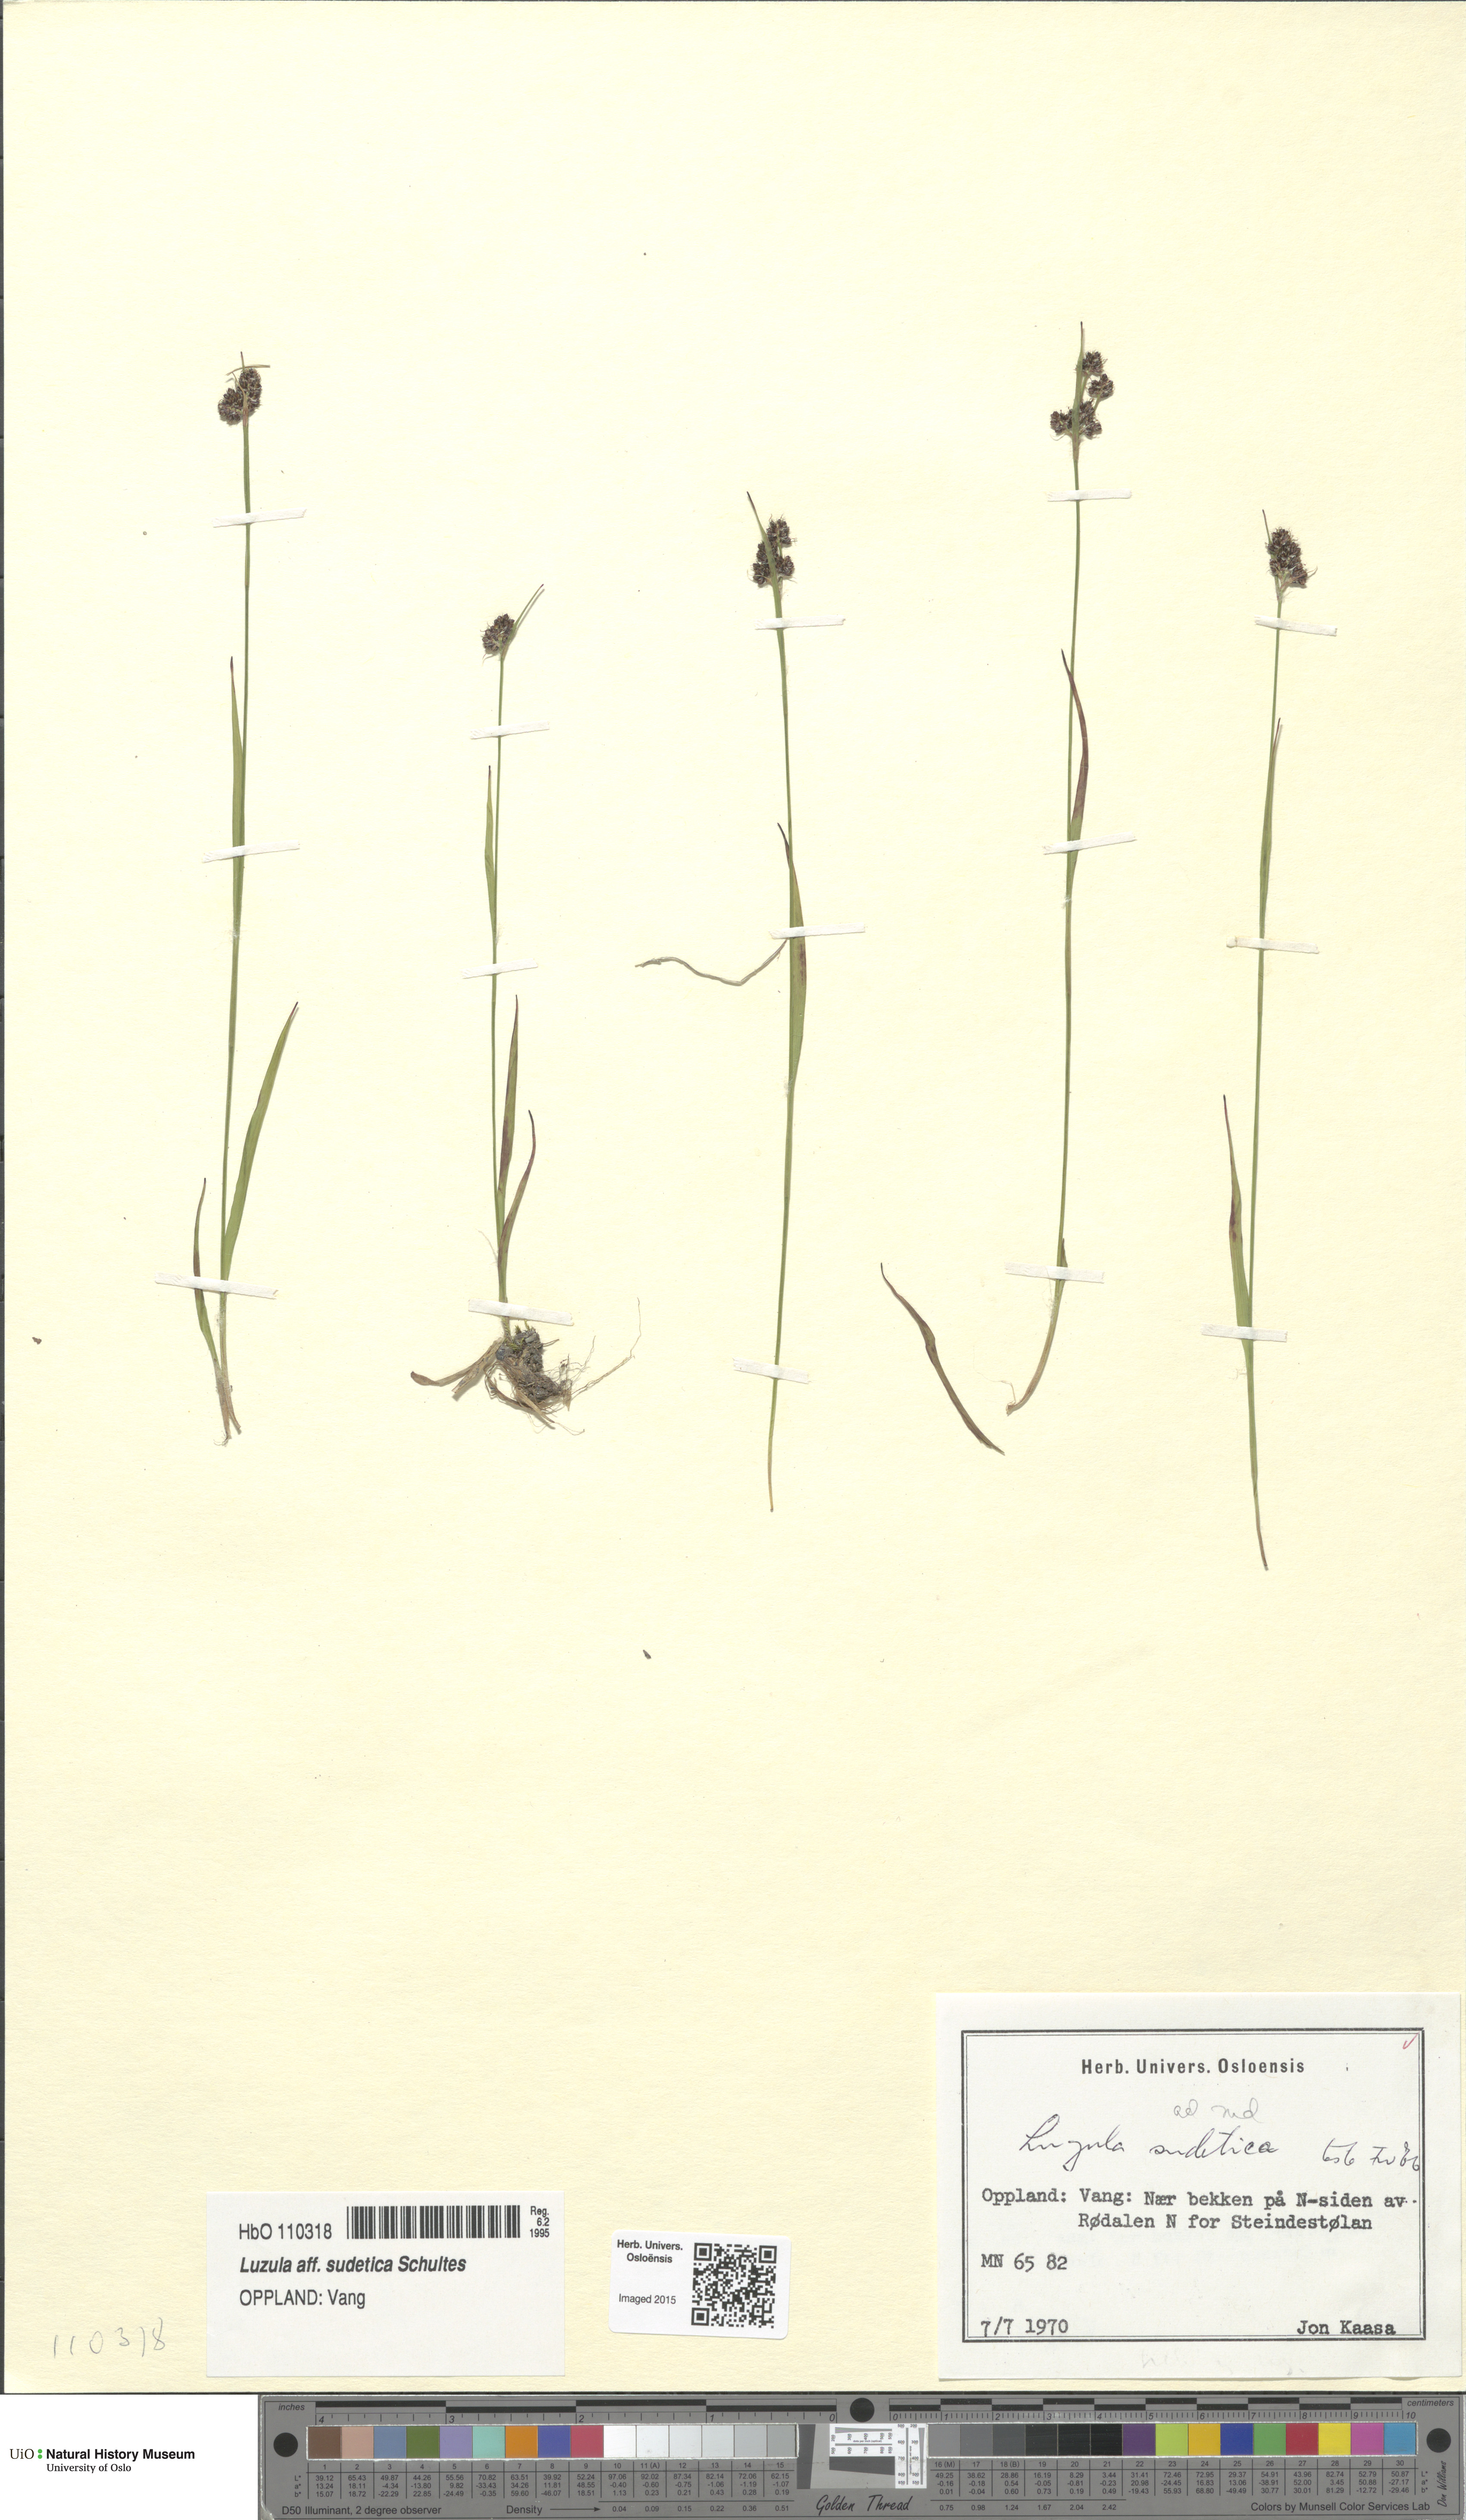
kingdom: Plantae
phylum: Tracheophyta
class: Liliopsida
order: Poales
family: Juncaceae
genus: Luzula
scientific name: Luzula sudetica
